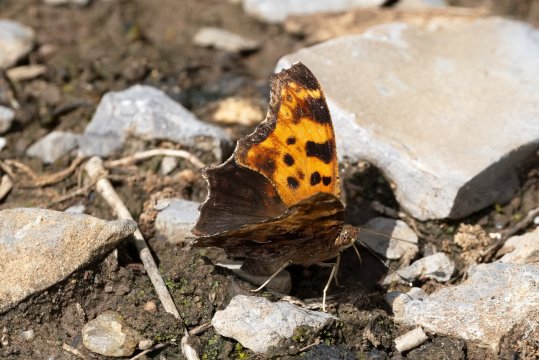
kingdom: Animalia
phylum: Arthropoda
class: Insecta
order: Lepidoptera
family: Nymphalidae
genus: Polygonia
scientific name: Polygonia comma
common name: Eastern Comma
